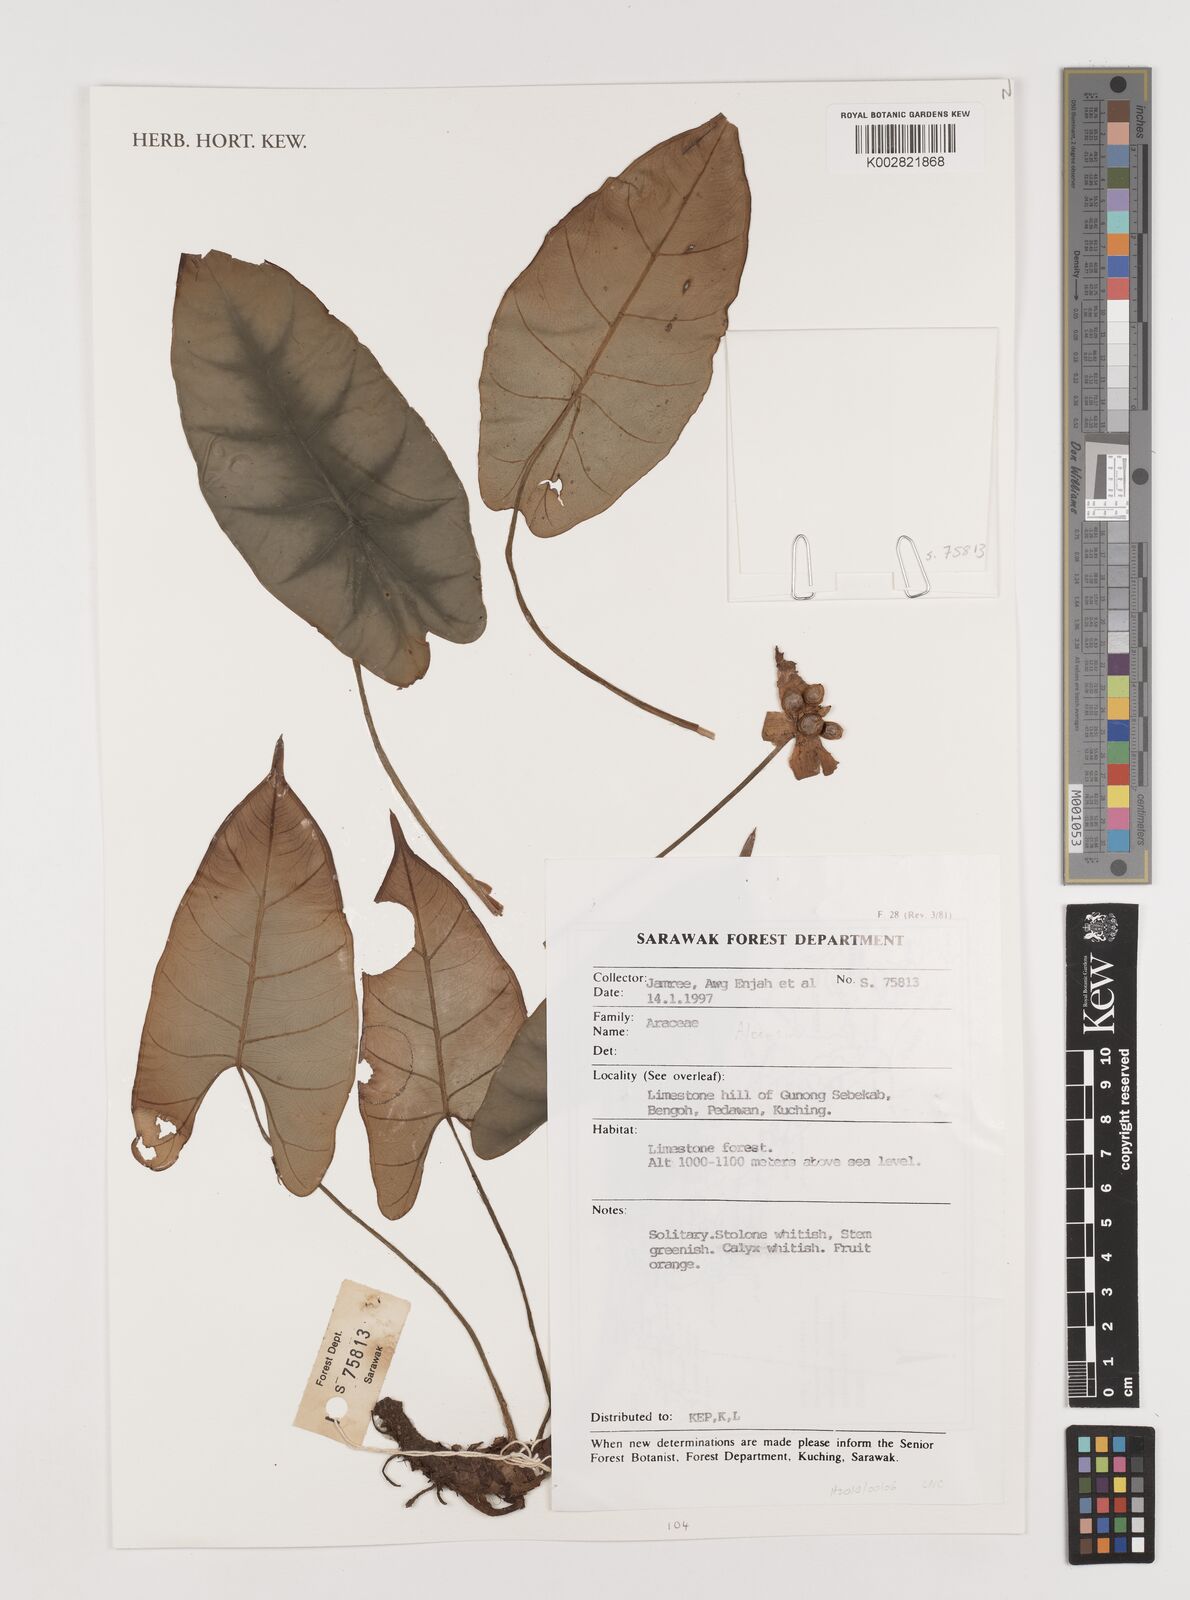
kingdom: Plantae
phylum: Tracheophyta
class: Liliopsida
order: Alismatales
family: Araceae
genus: Alocasia
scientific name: Alocasia
